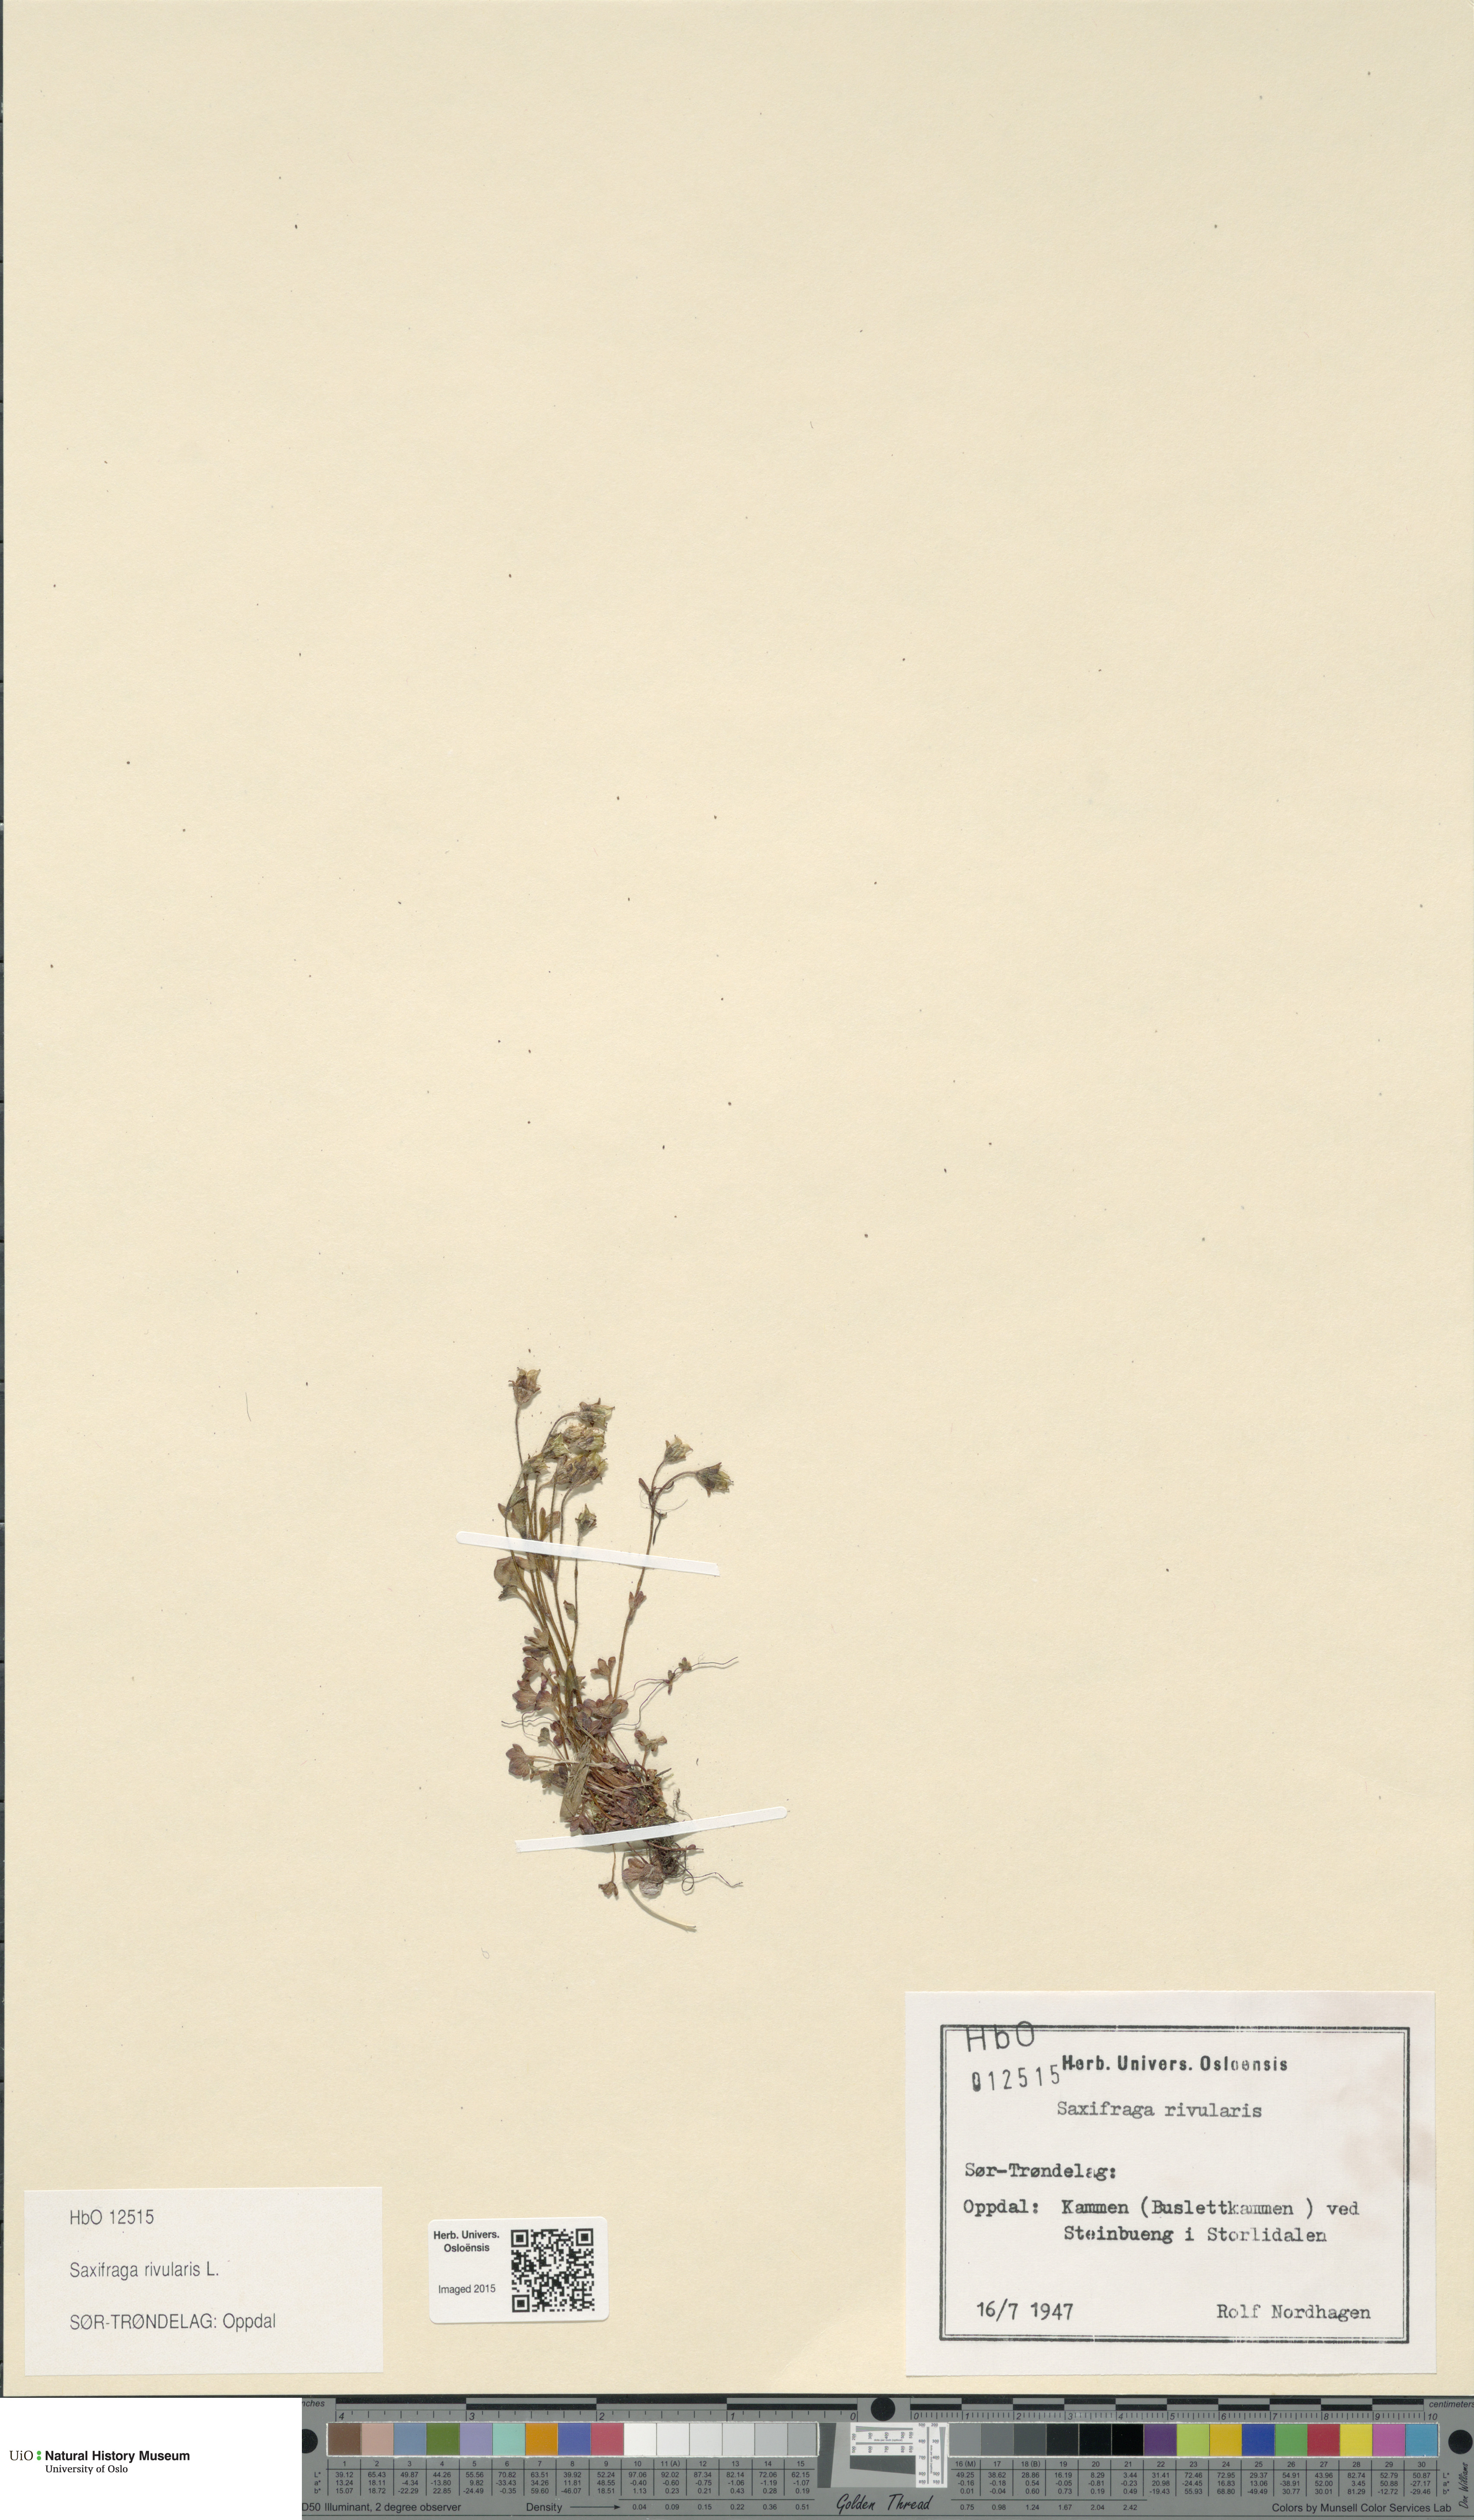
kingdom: Plantae
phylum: Tracheophyta
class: Magnoliopsida
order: Saxifragales
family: Saxifragaceae
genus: Saxifraga
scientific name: Saxifraga rivularis
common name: Highland saxifrage
